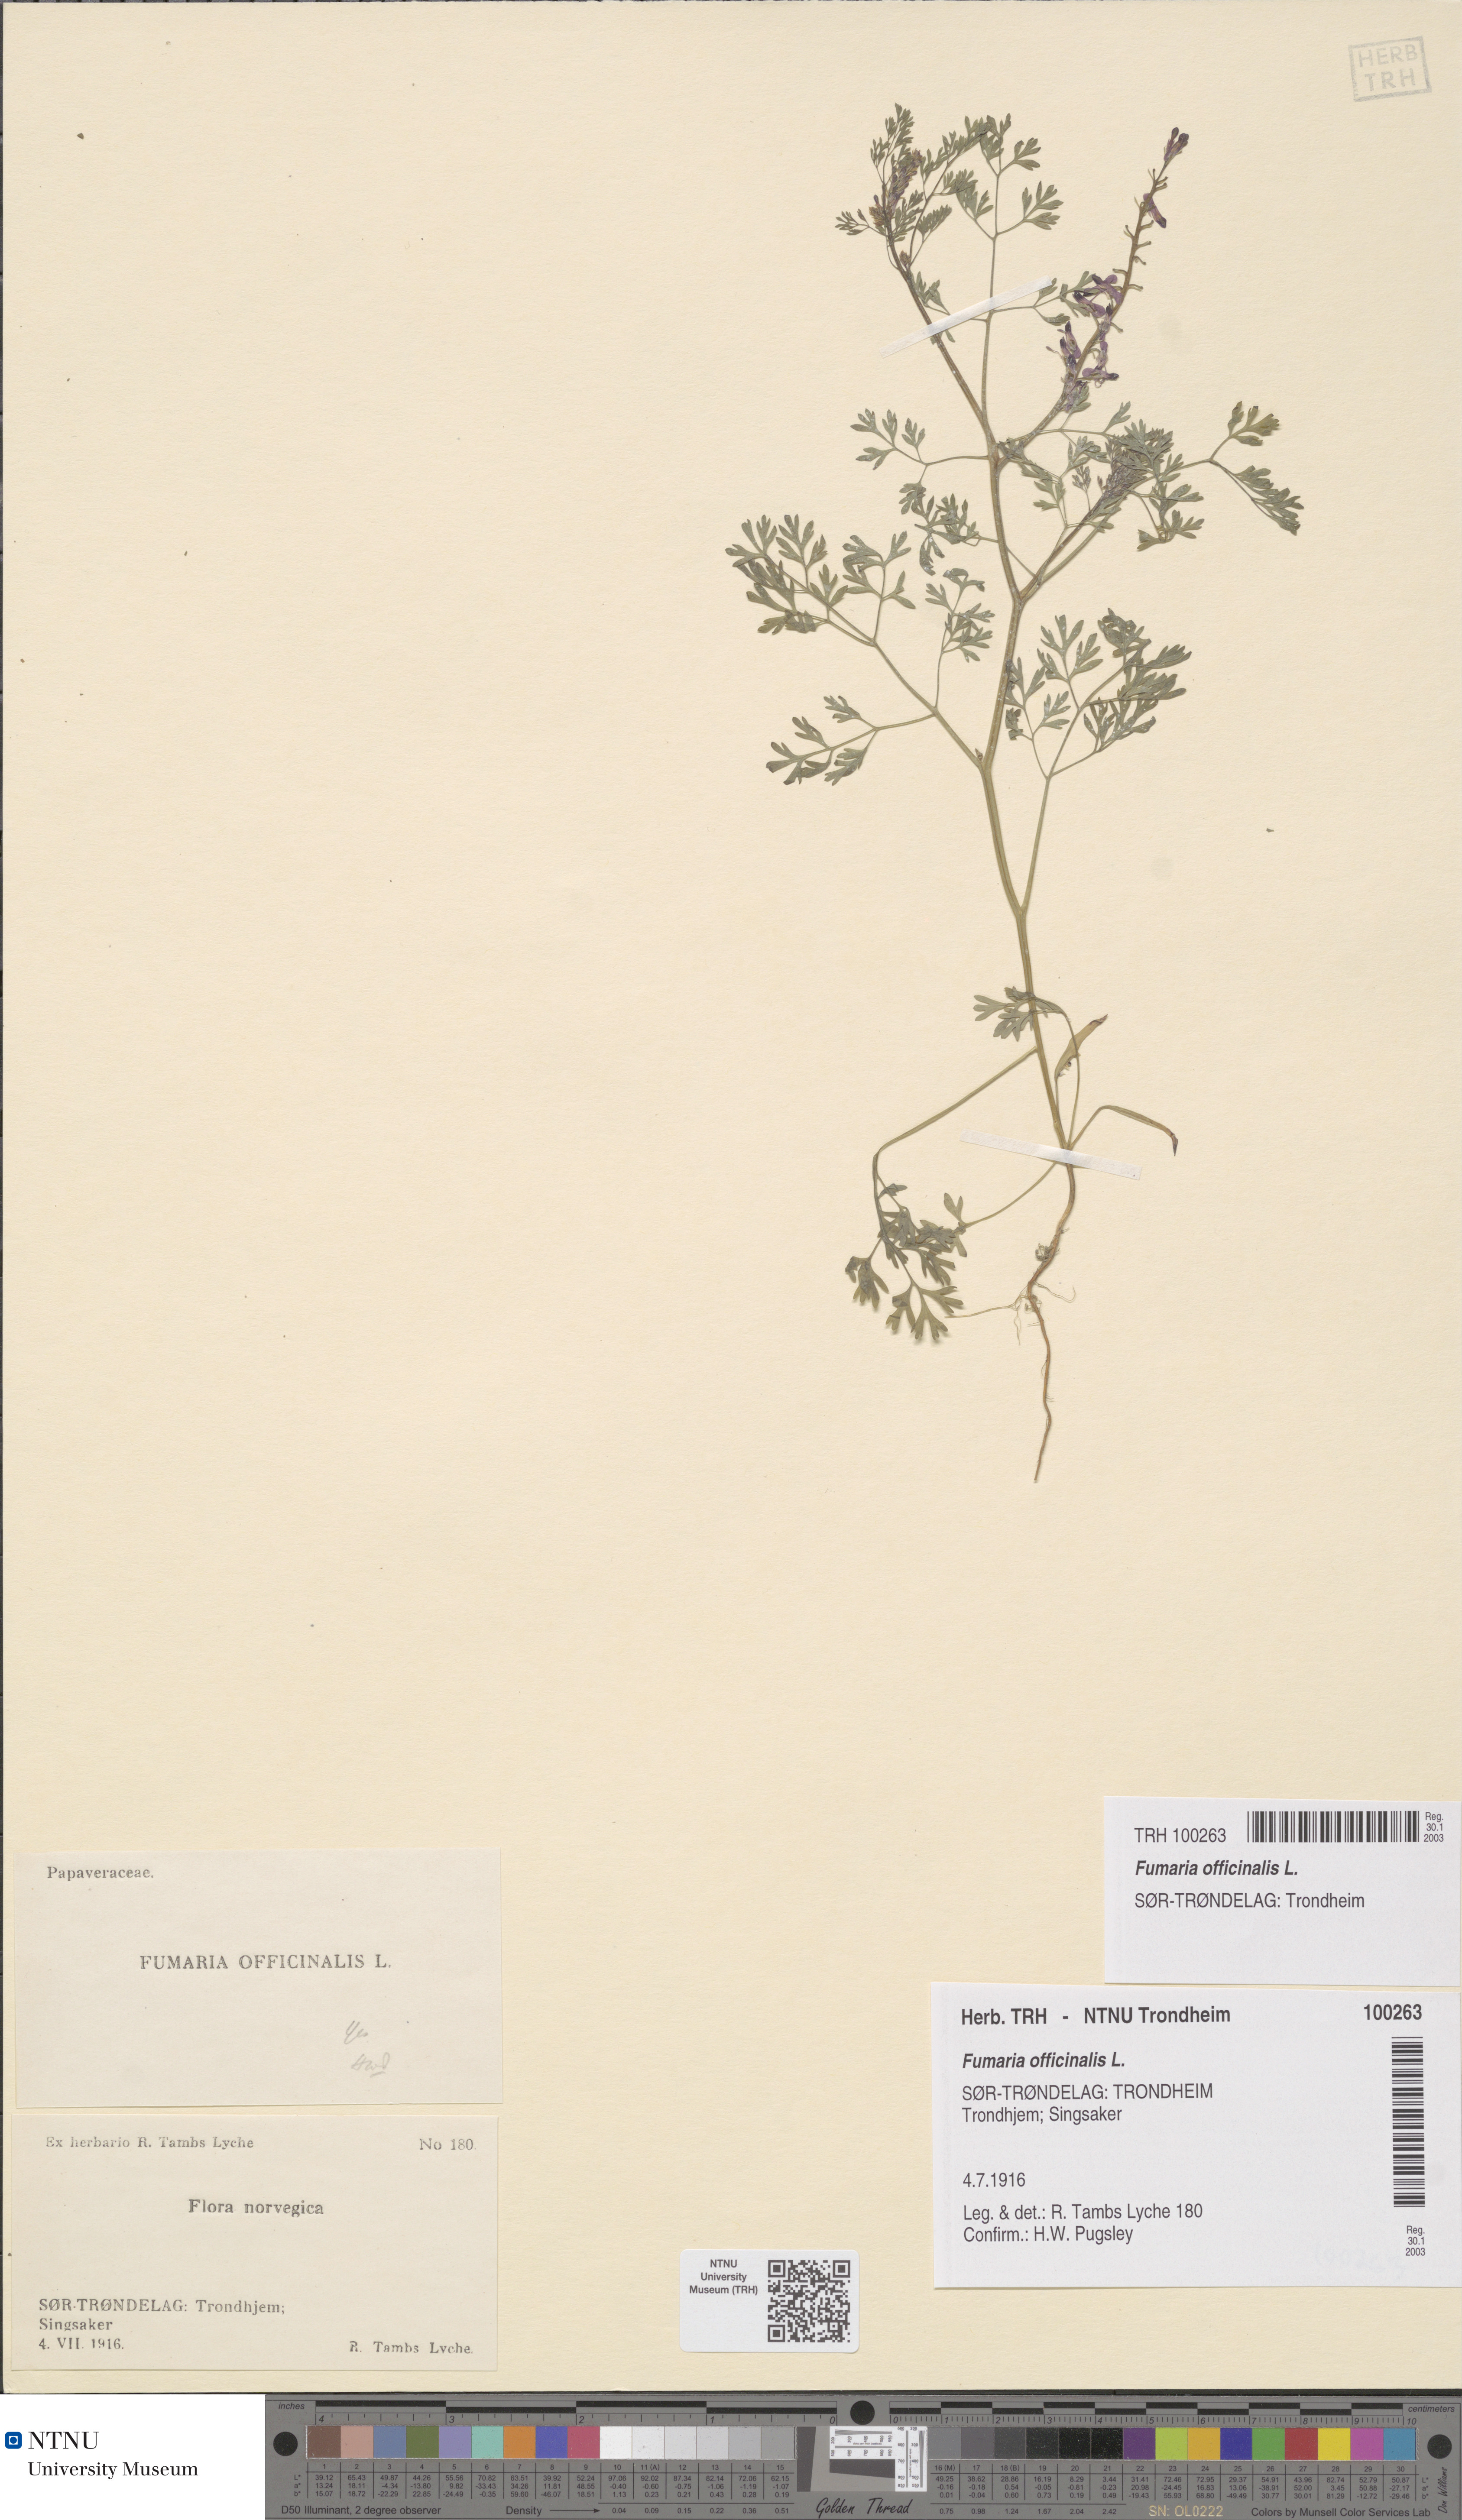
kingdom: Plantae
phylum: Tracheophyta
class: Magnoliopsida
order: Ranunculales
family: Papaveraceae
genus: Fumaria
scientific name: Fumaria officinalis
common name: Common fumitory
